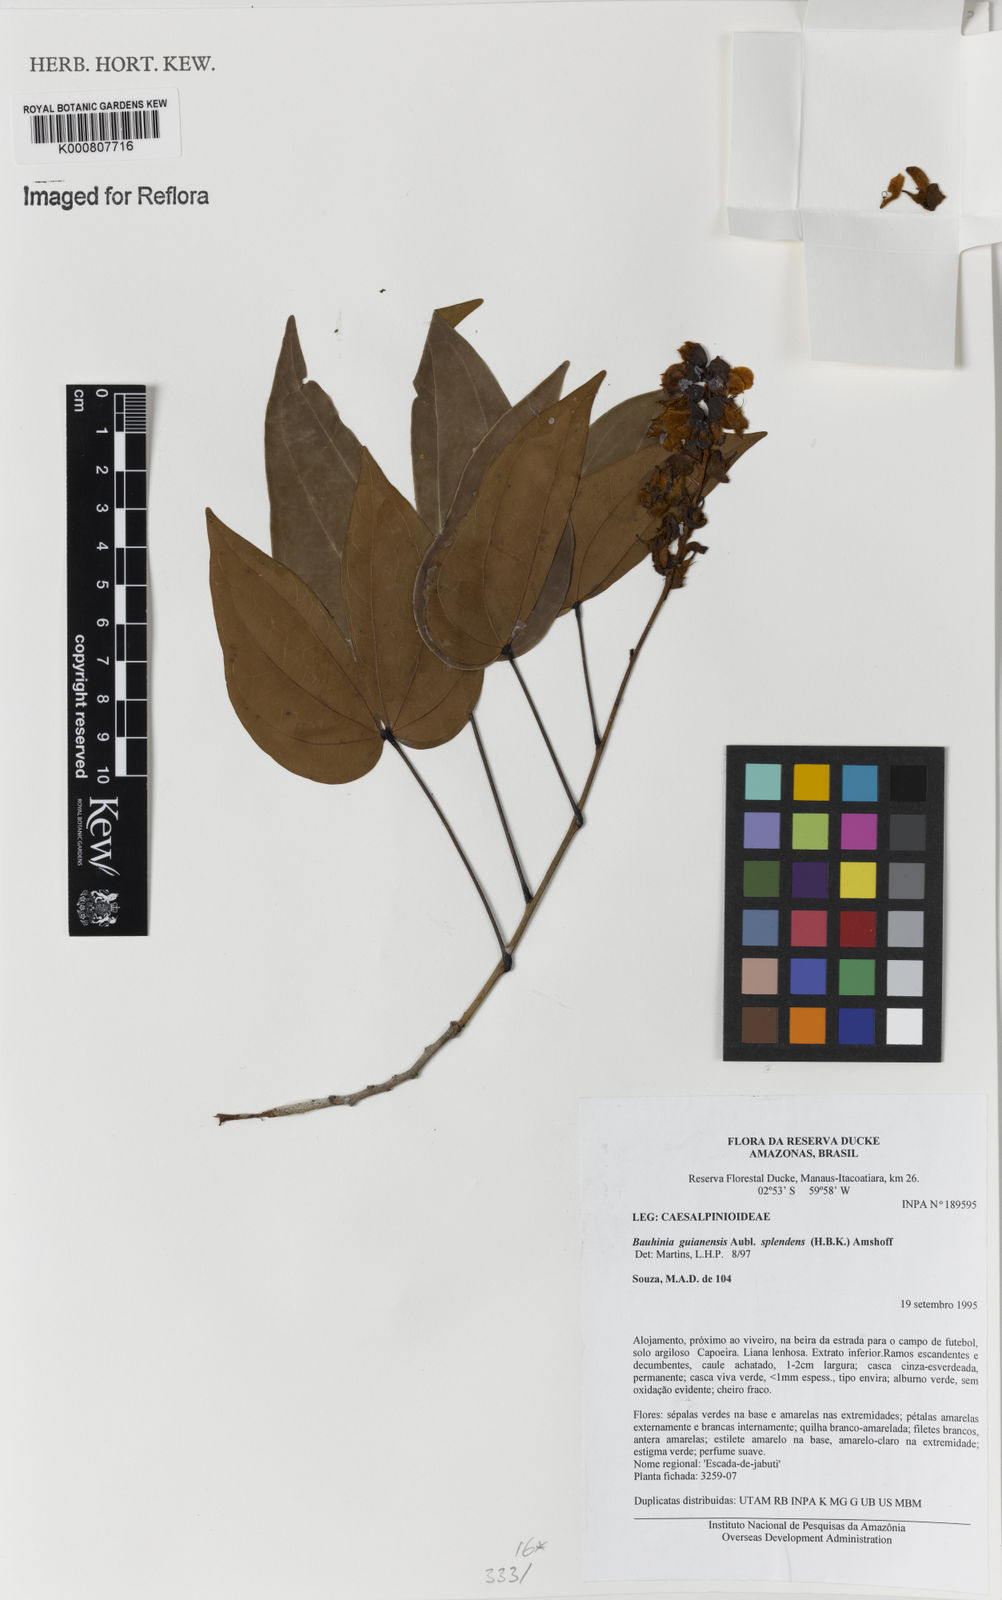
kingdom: Plantae
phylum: Tracheophyta
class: Magnoliopsida
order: Fabales
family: Fabaceae
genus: Schnella
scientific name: Schnella splendens
